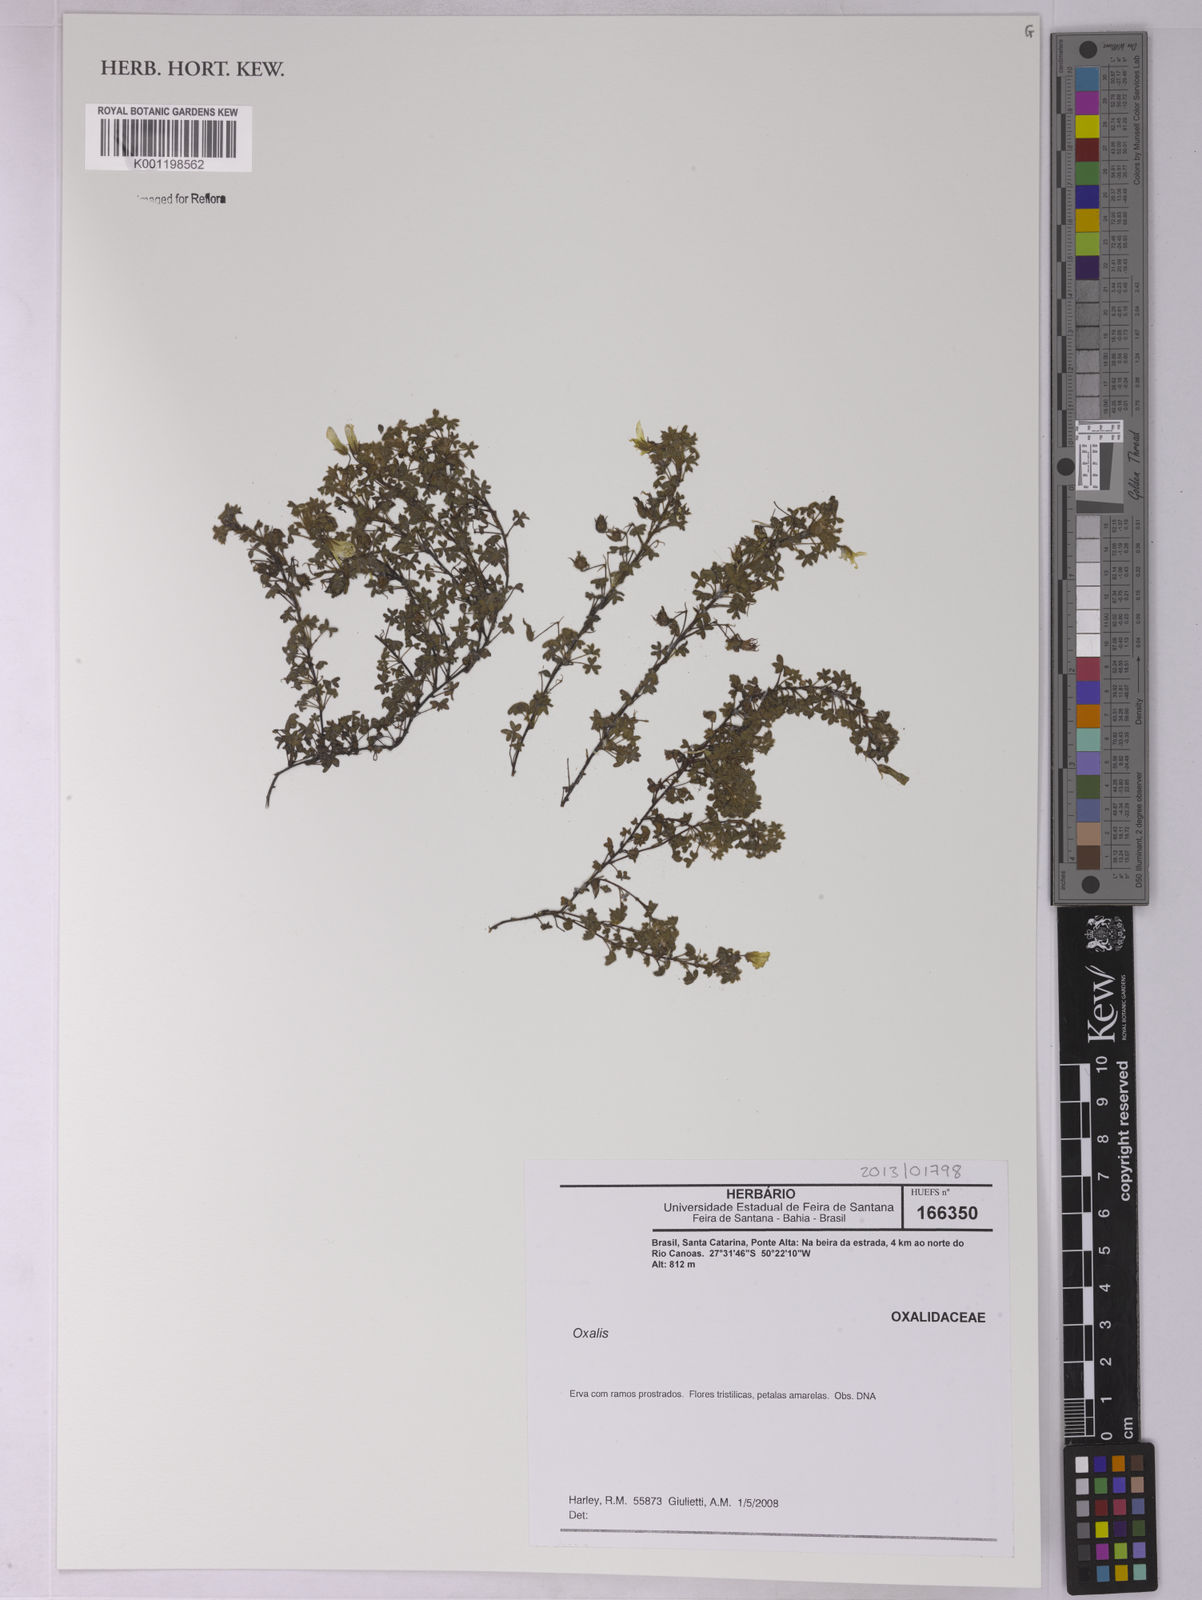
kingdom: Plantae
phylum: Tracheophyta
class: Magnoliopsida
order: Oxalidales
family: Oxalidaceae
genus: Oxalis
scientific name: Oxalis
